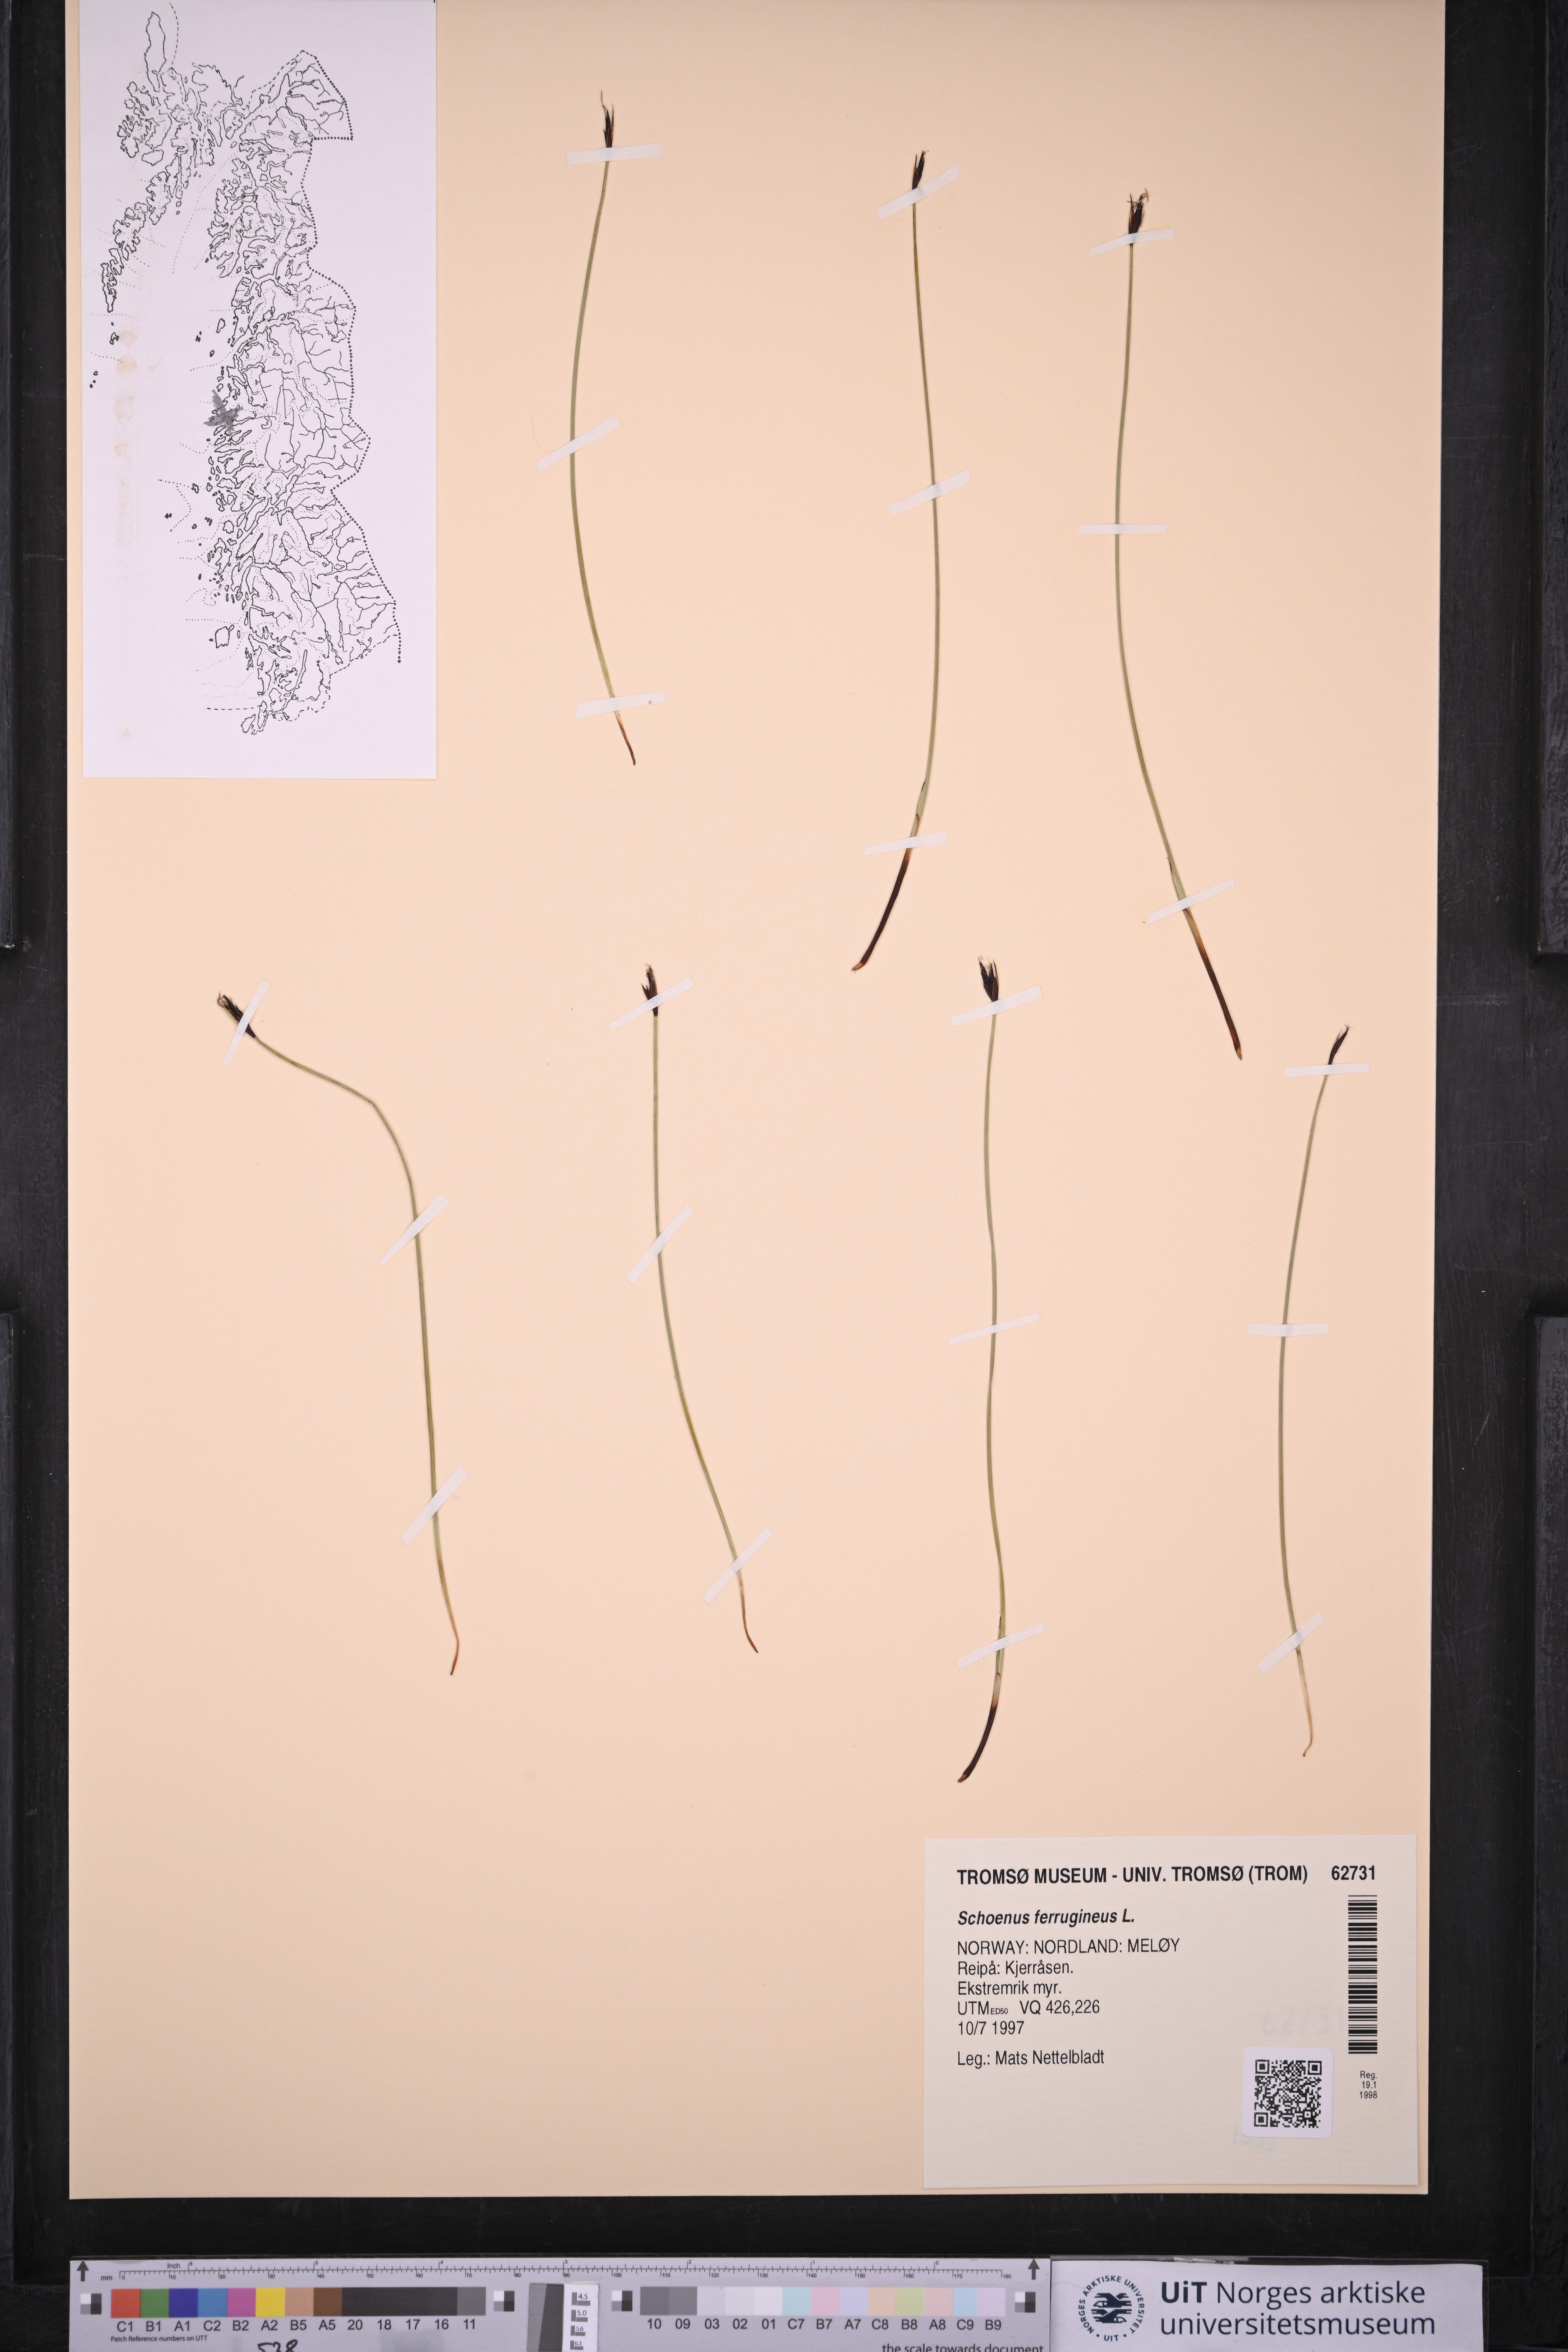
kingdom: Plantae
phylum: Tracheophyta
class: Liliopsida
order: Poales
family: Cyperaceae
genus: Schoenus
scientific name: Schoenus ferrugineus
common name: Brown bog-rush
